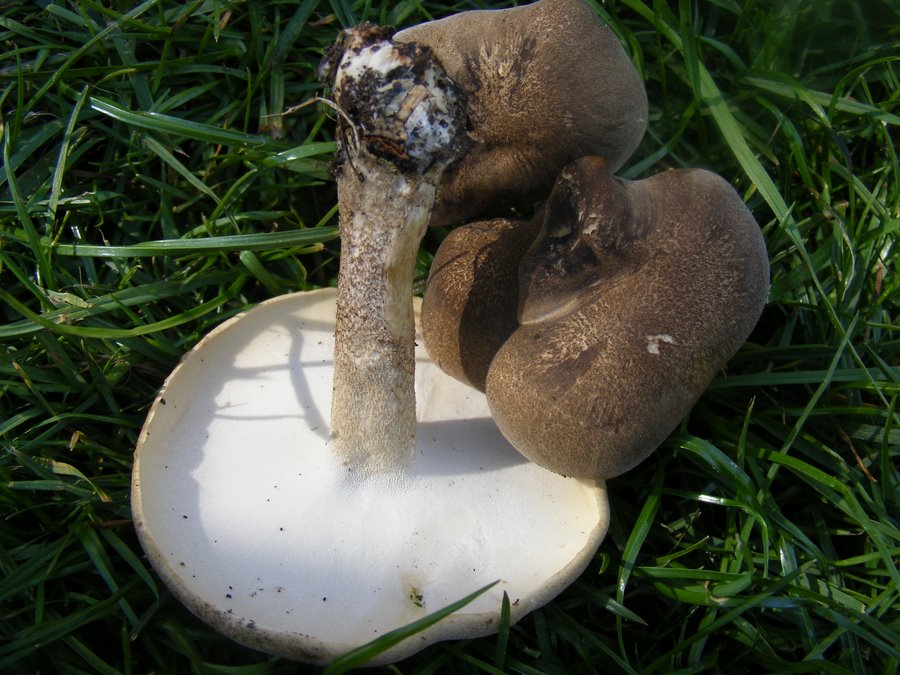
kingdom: Fungi
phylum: Basidiomycota
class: Agaricomycetes
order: Polyporales
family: Polyporaceae
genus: Lentinus
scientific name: Lentinus substrictus
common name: forårs-stilkporesvamp
